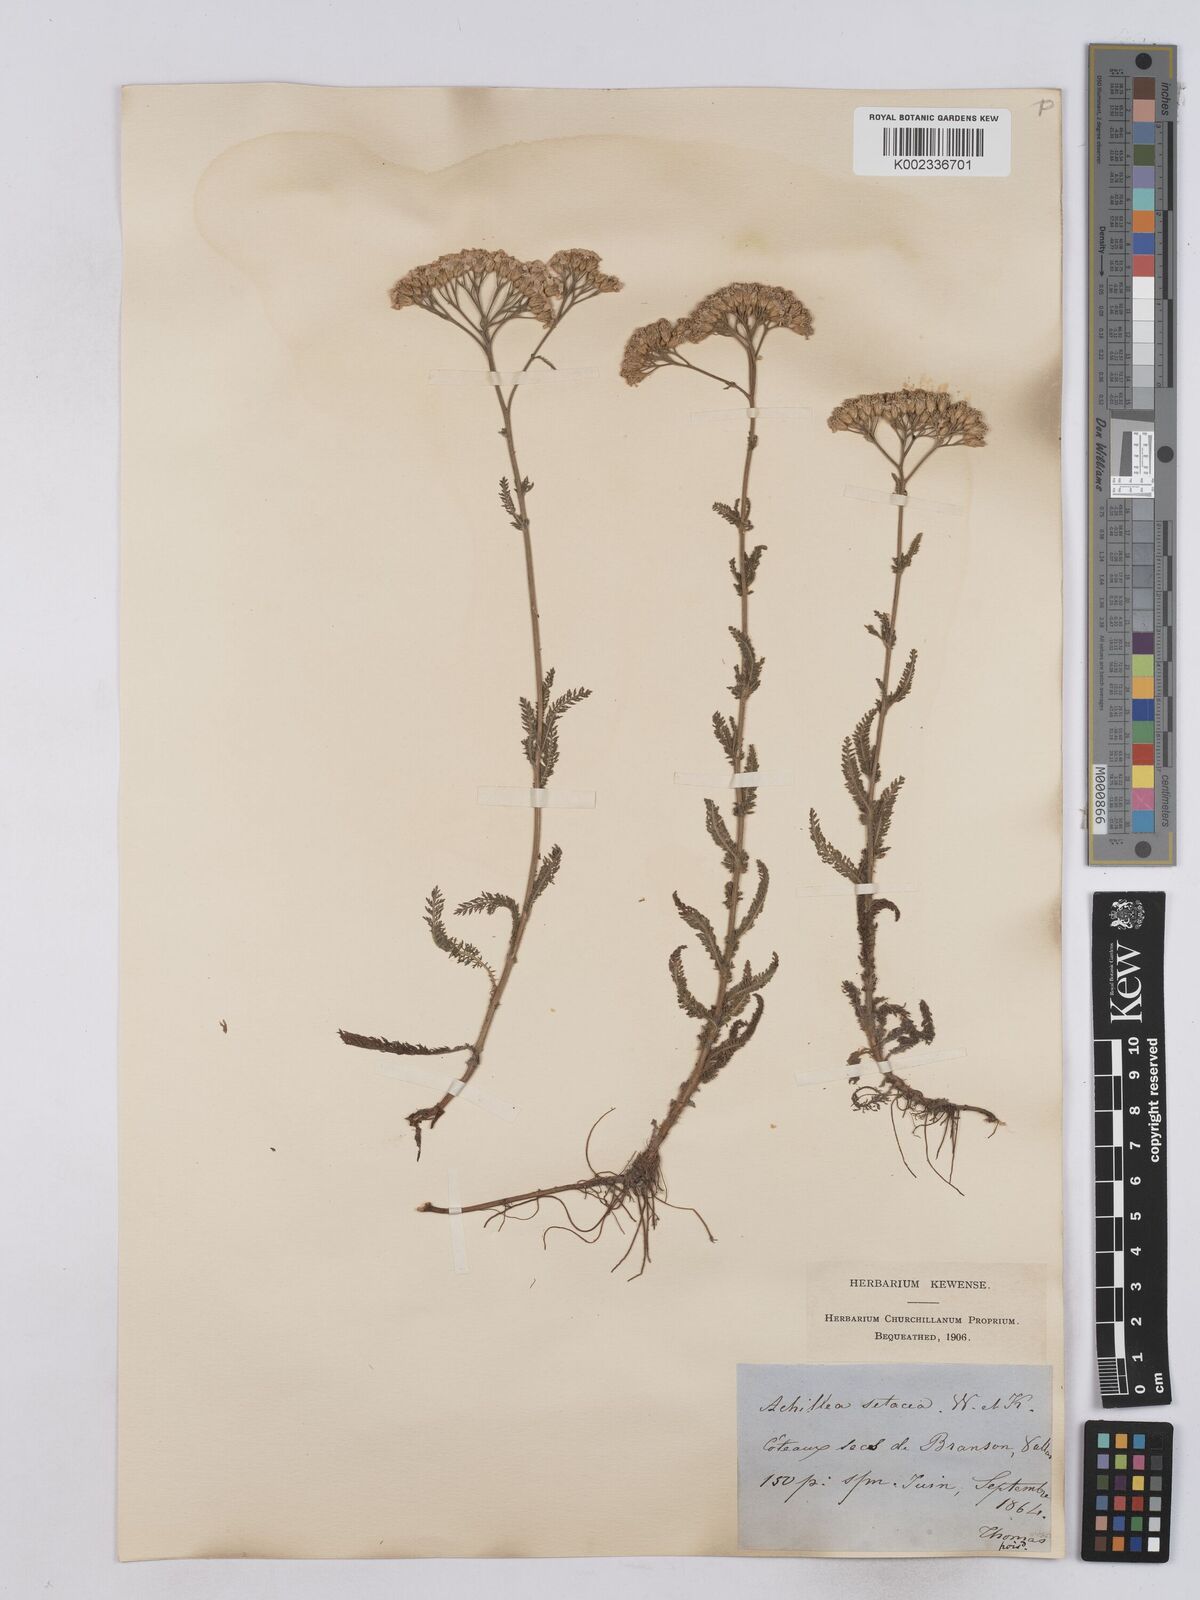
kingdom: Plantae
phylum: Tracheophyta
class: Magnoliopsida
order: Asterales
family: Asteraceae
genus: Achillea
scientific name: Achillea setacea
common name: Bristly yarrow
